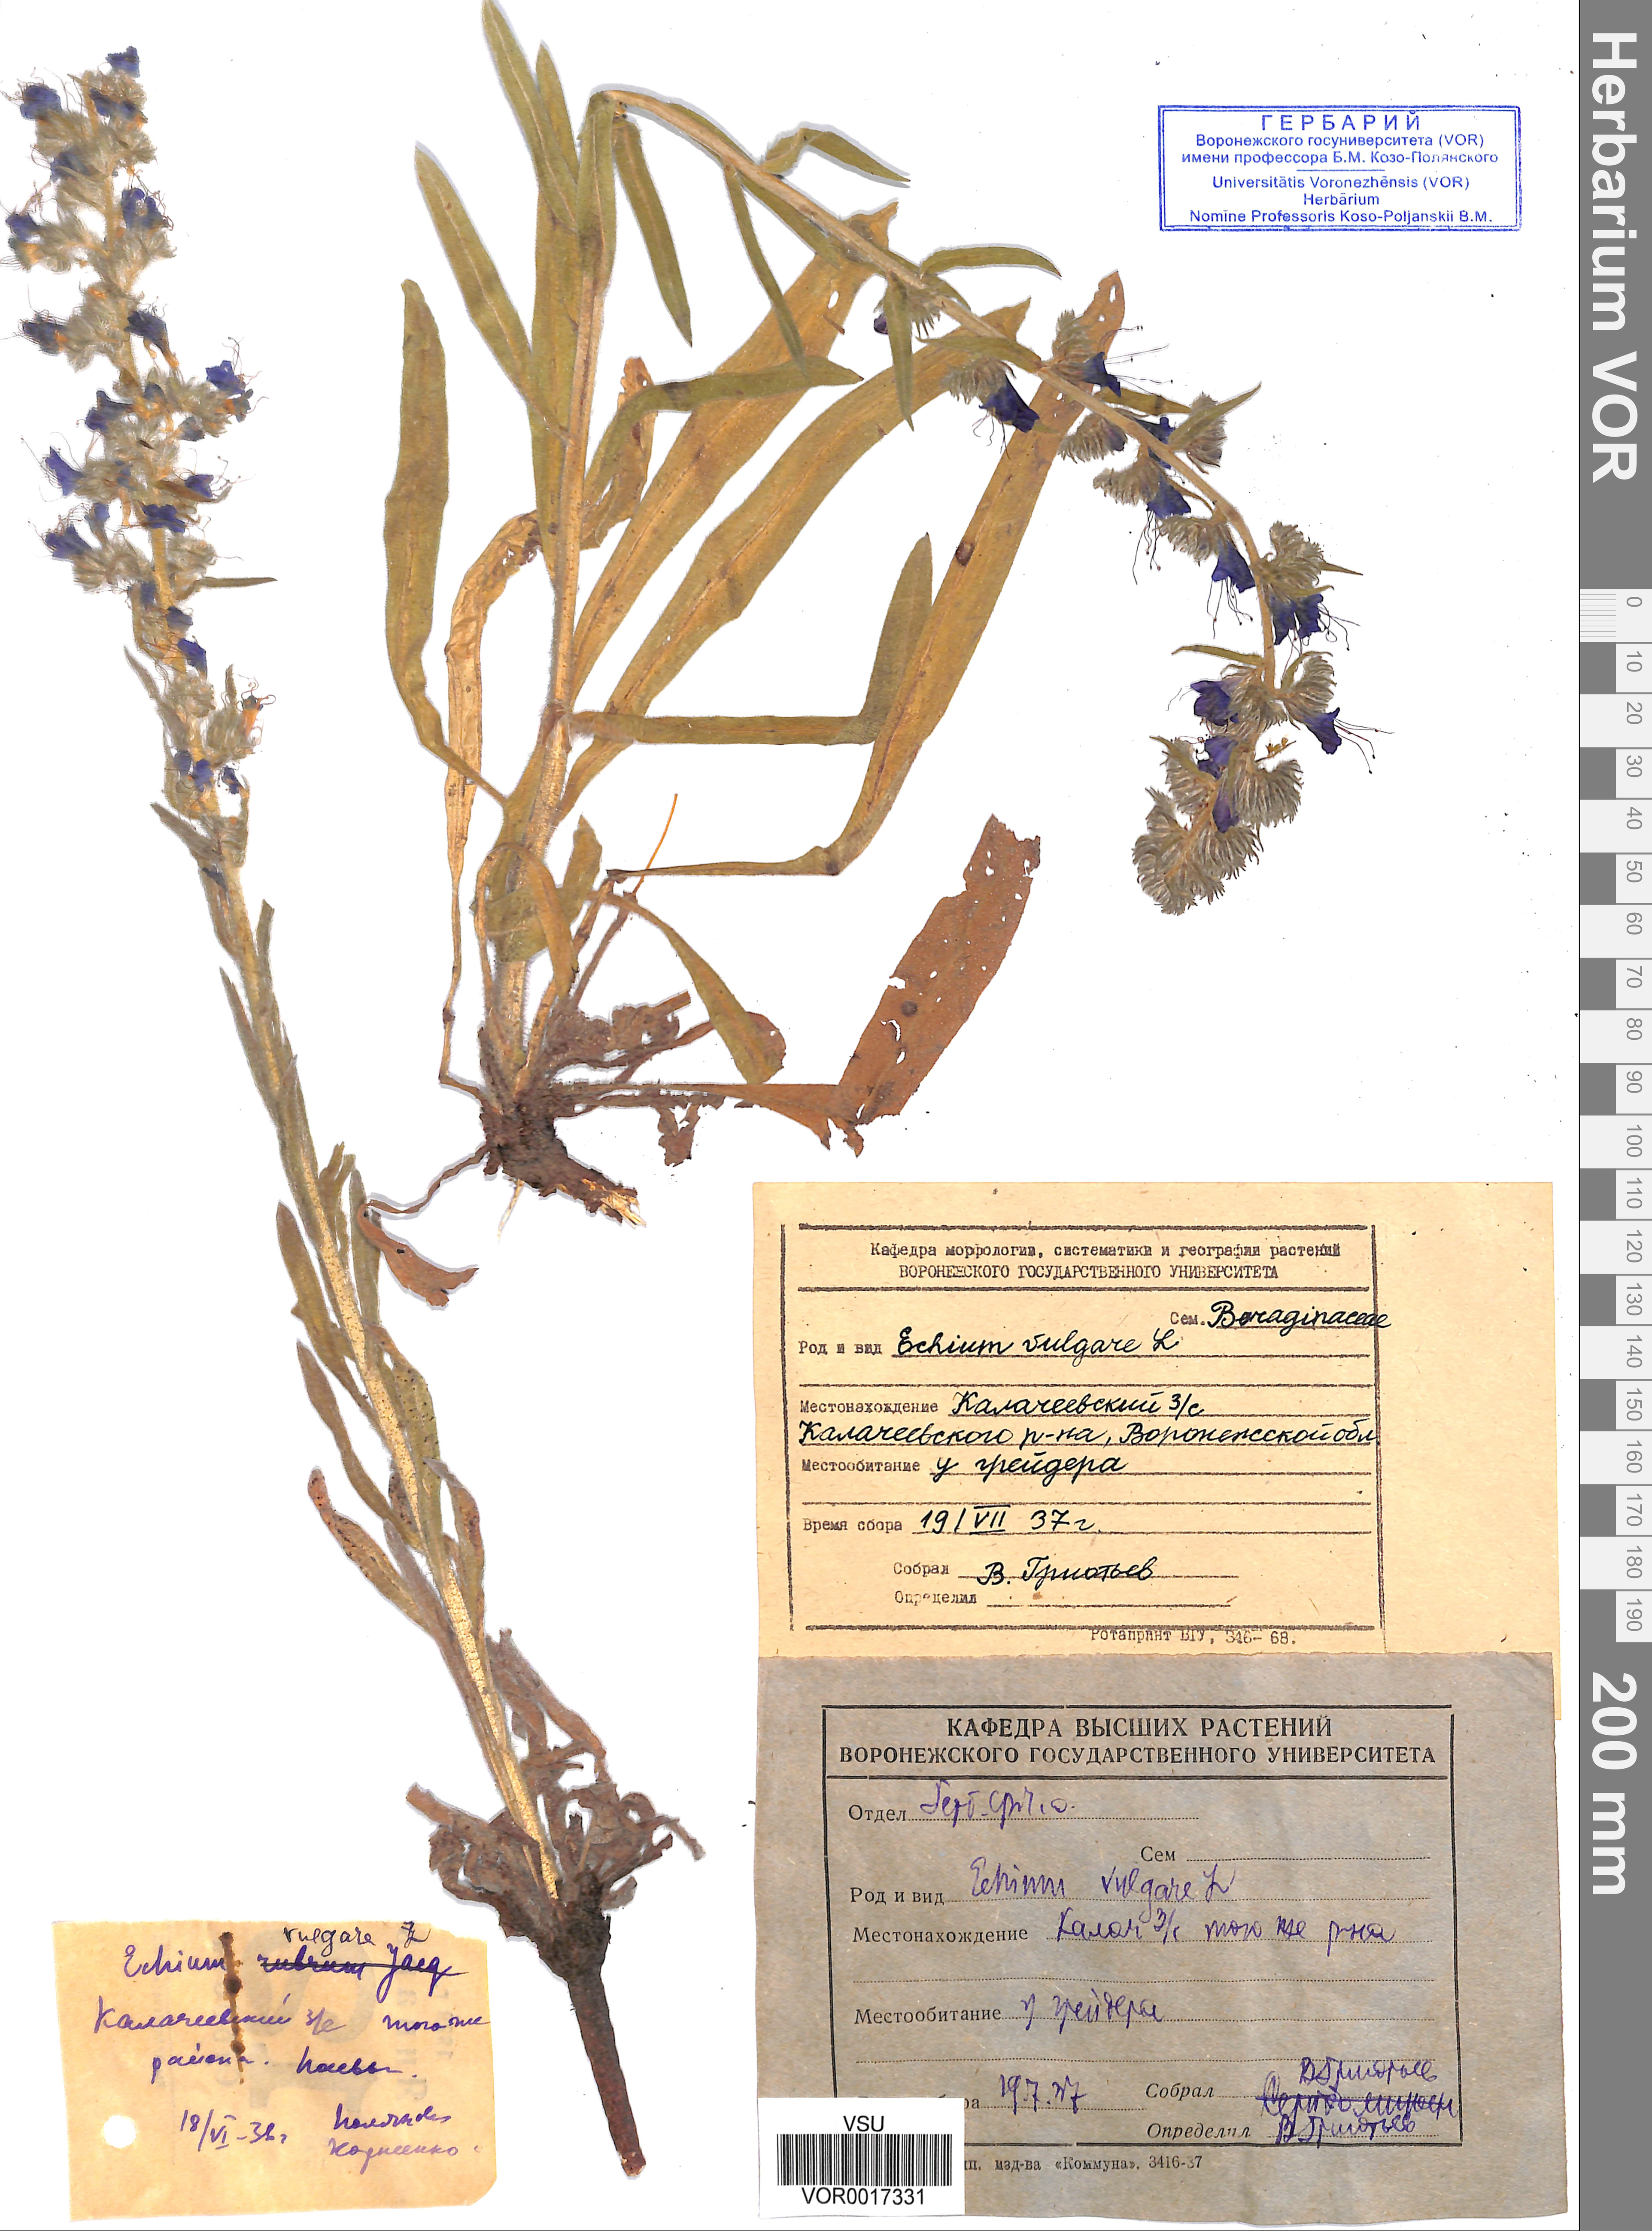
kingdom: Plantae
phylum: Tracheophyta
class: Magnoliopsida
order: Boraginales
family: Boraginaceae
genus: Echium
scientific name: Echium vulgare
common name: Common viper's bugloss
